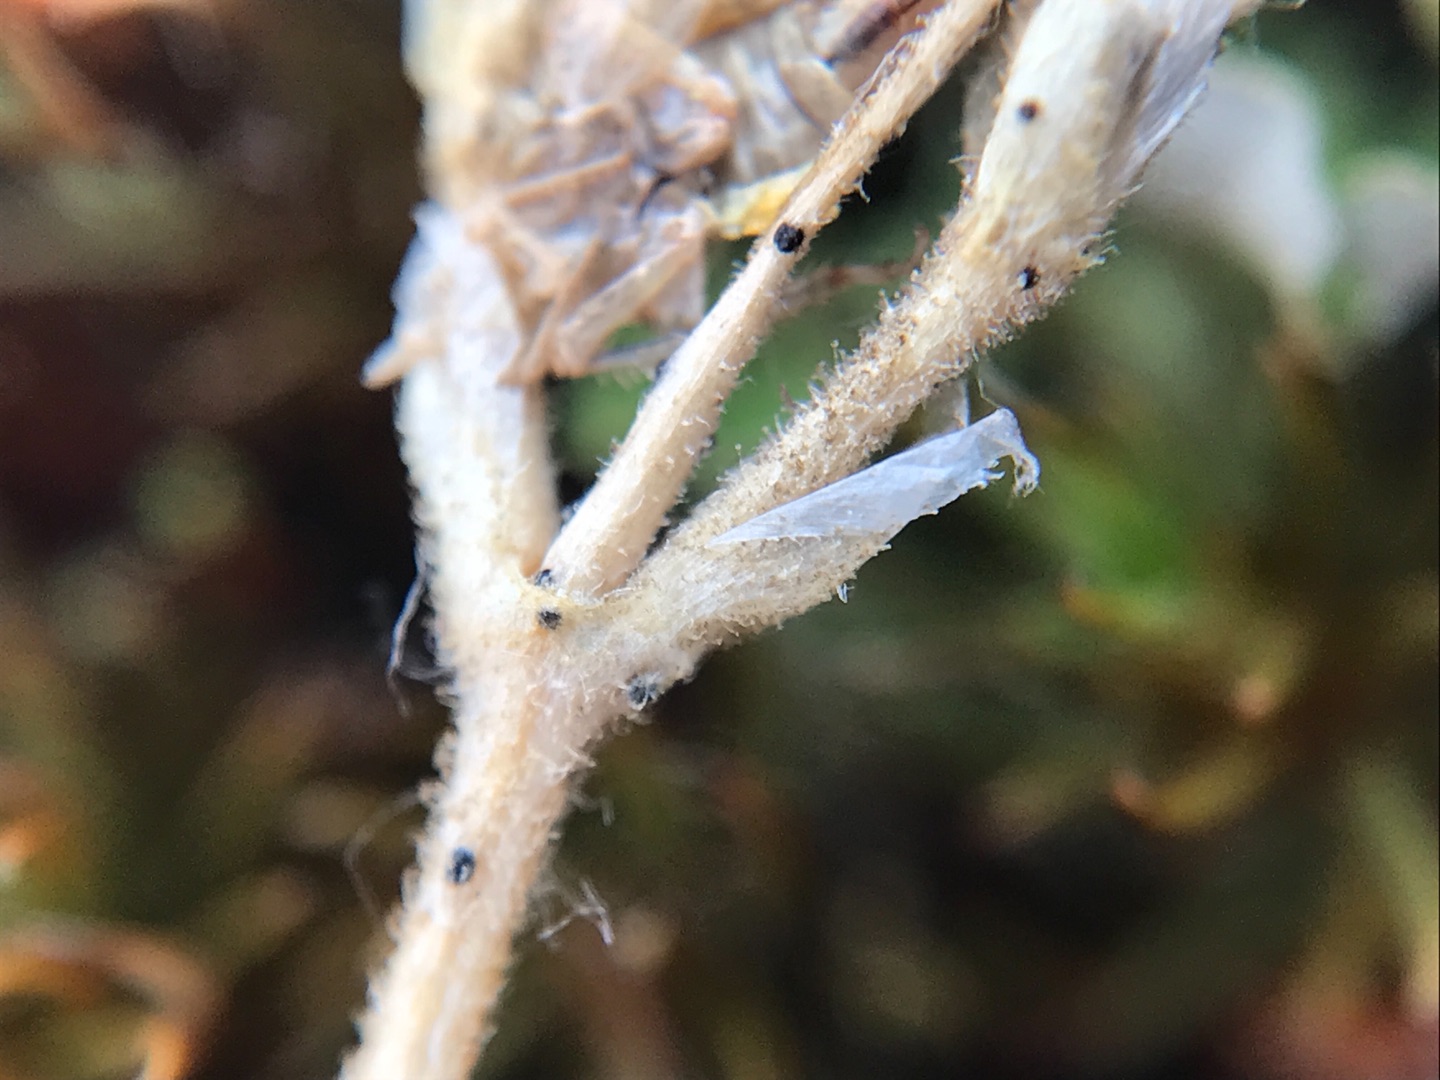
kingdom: Plantae
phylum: Tracheophyta
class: Magnoliopsida
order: Caryophyllales
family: Caryophyllaceae
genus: Cerastium
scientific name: Cerastium semidecandrum
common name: Femhannet hønsetarm
